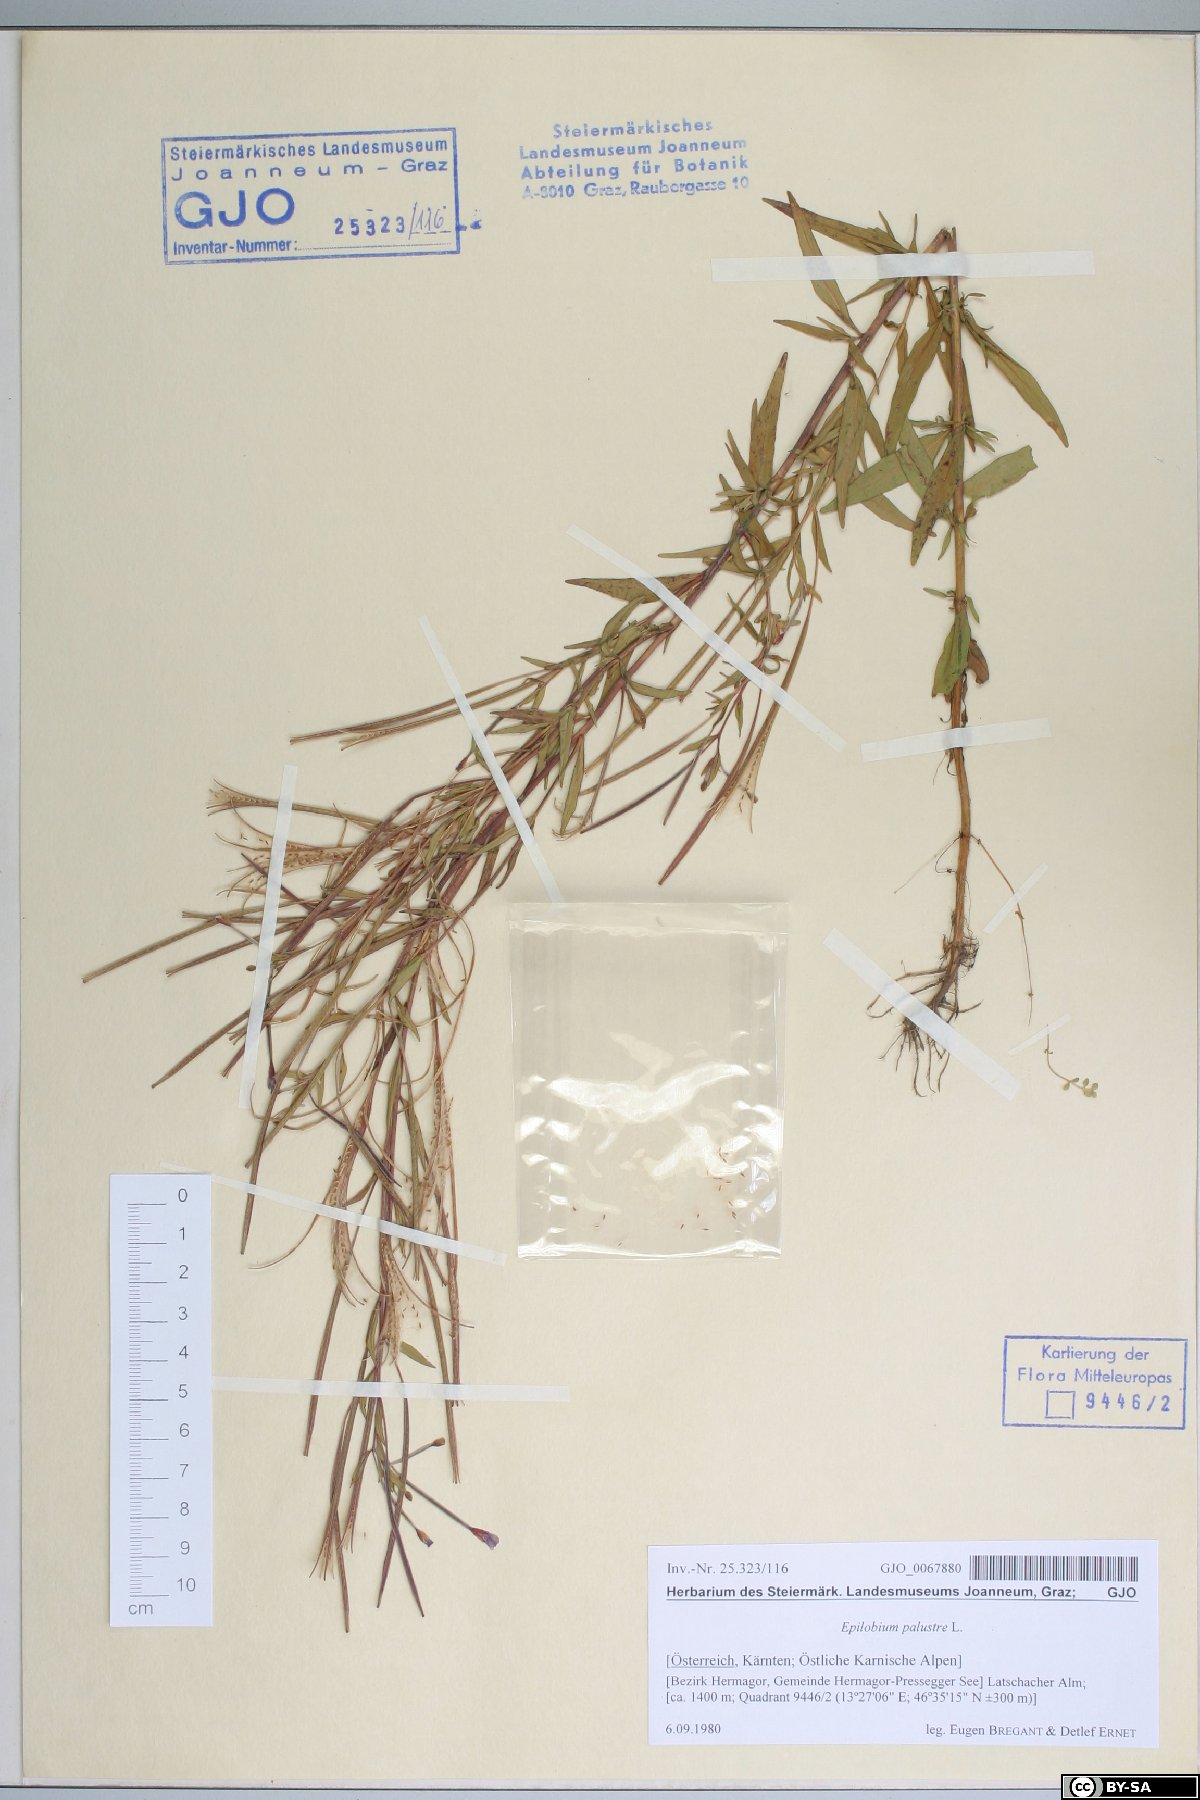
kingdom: Plantae
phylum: Tracheophyta
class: Magnoliopsida
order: Myrtales
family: Onagraceae
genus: Epilobium
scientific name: Epilobium palustre
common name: Marsh willowherb
